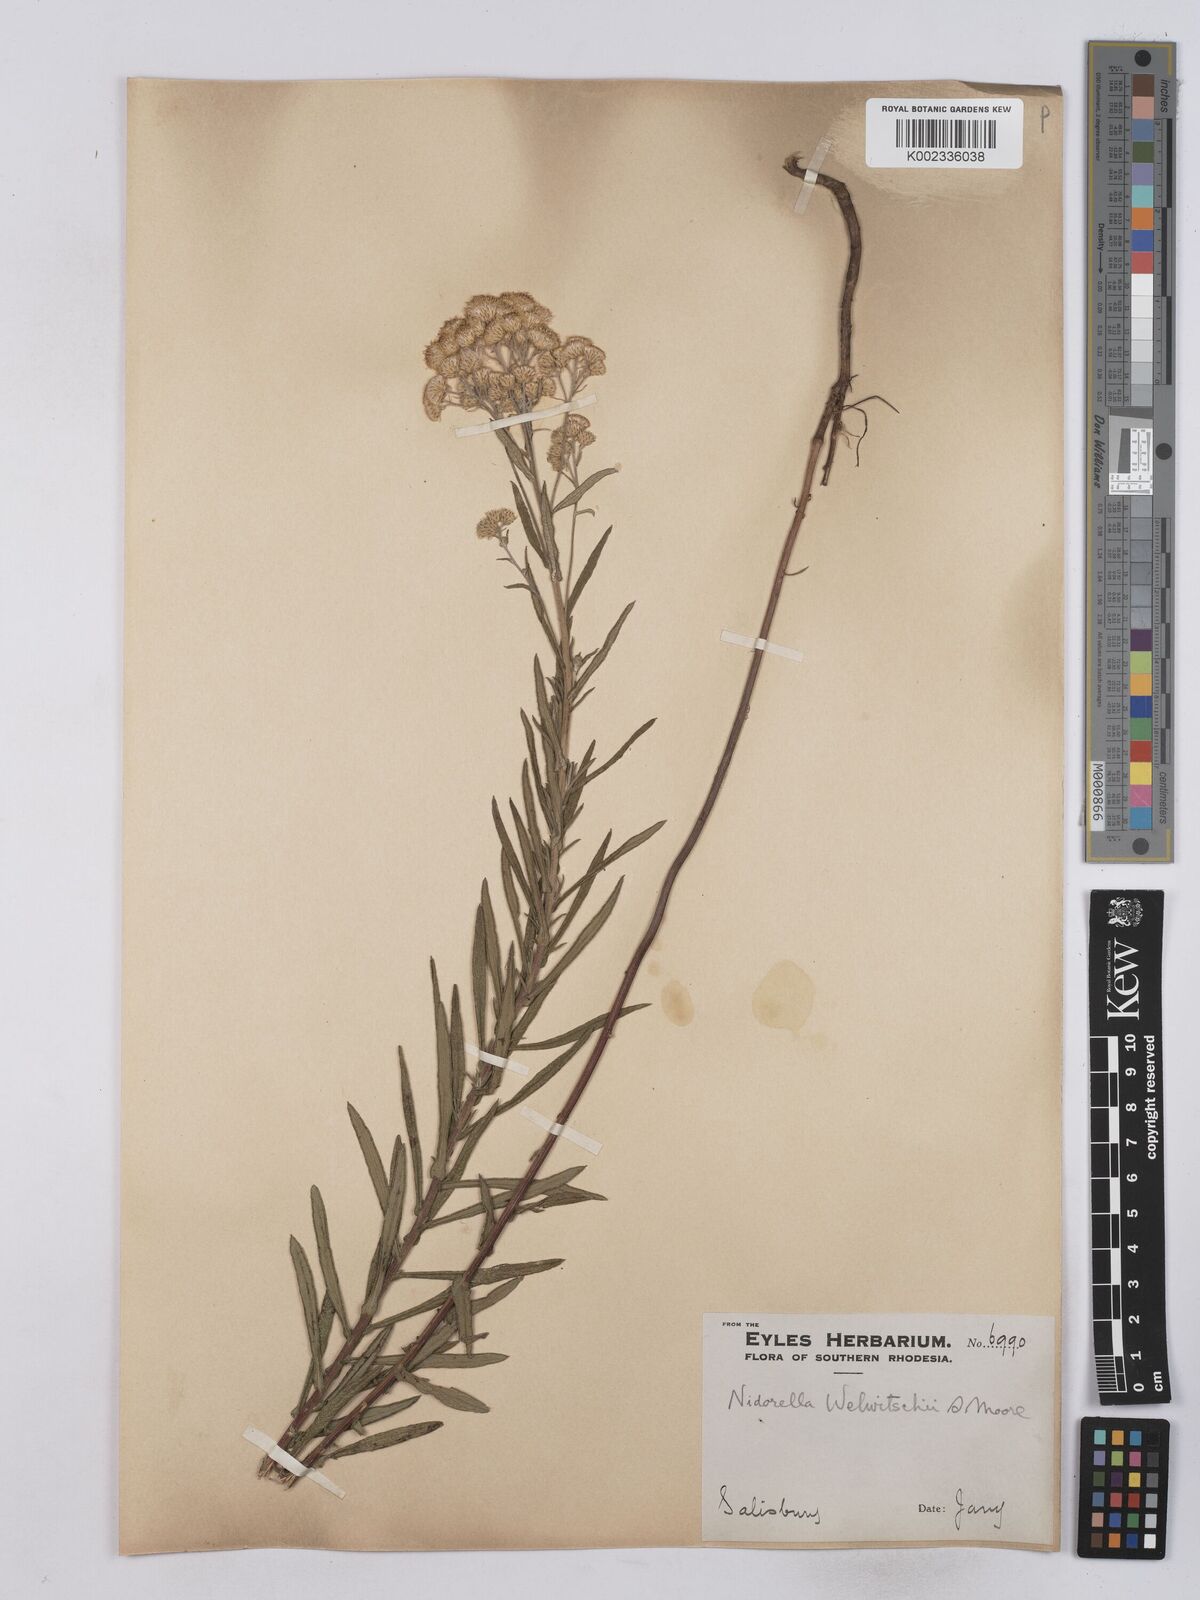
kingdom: Plantae
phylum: Tracheophyta
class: Magnoliopsida
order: Asterales
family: Asteraceae
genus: Nidorella
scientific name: Nidorella welwitschii
